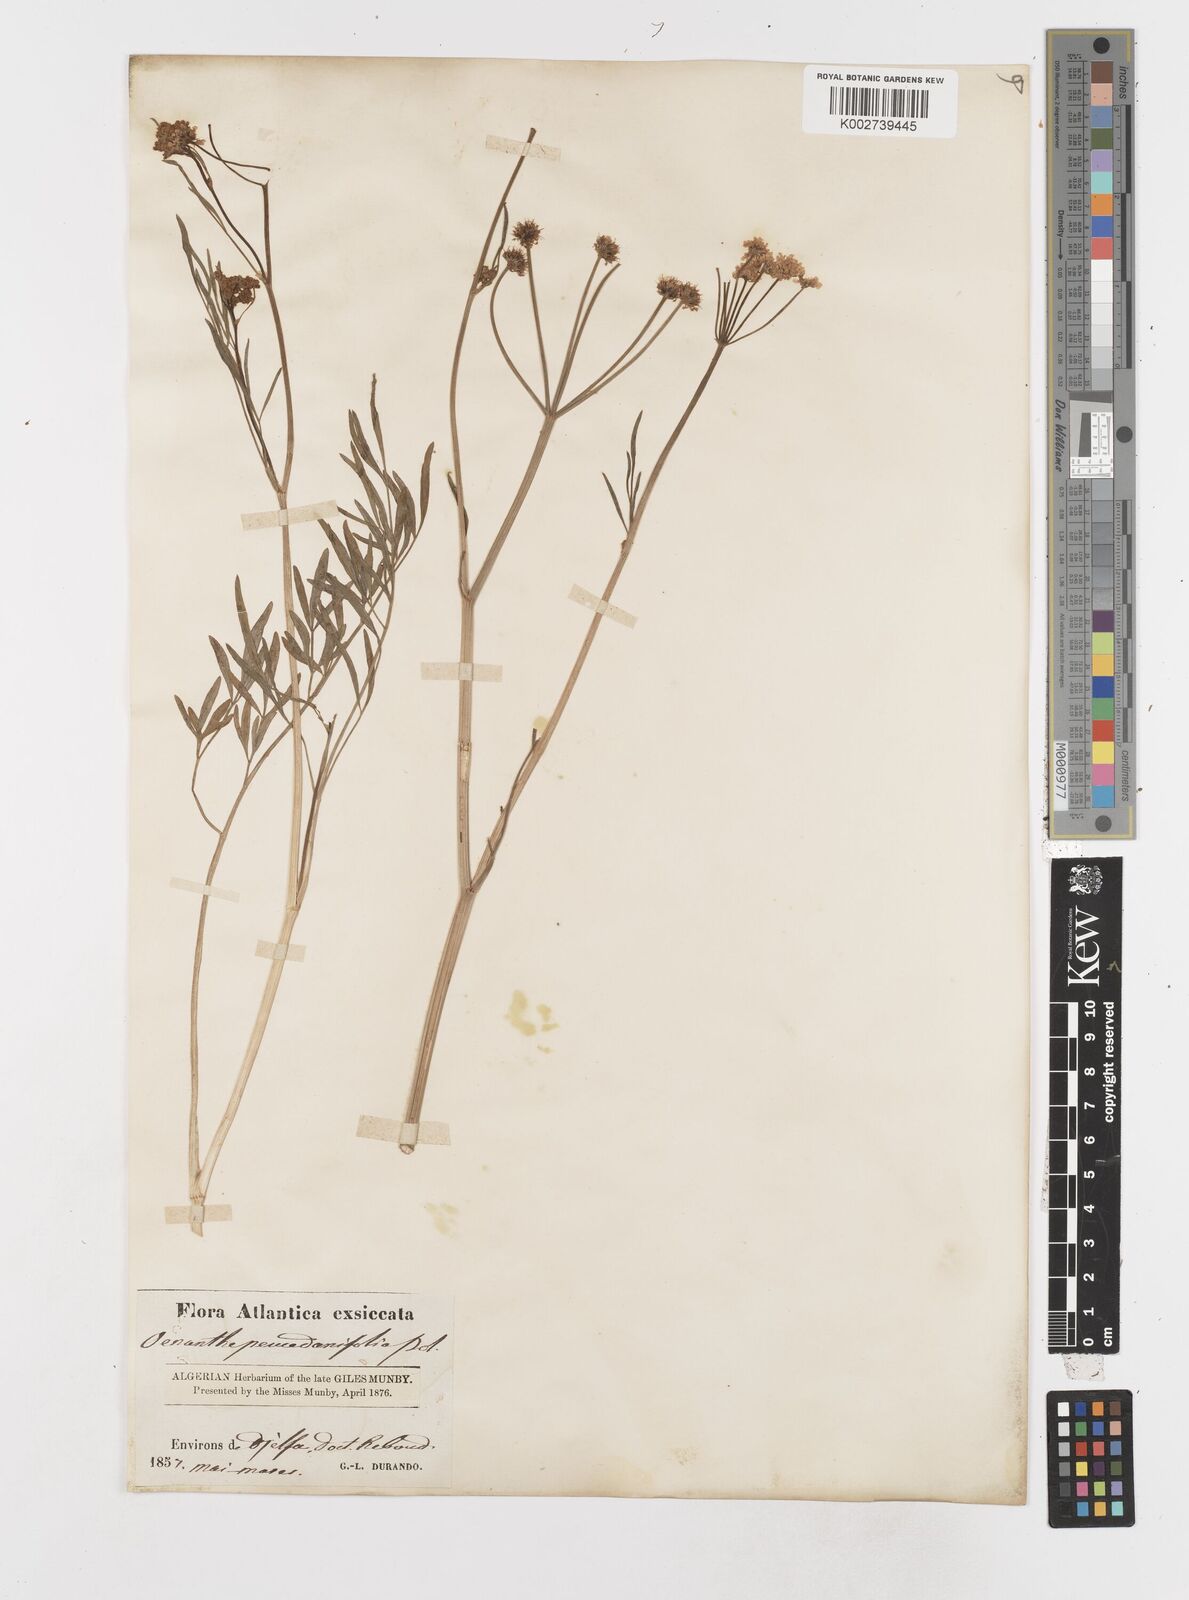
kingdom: Plantae
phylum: Tracheophyta
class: Magnoliopsida
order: Apiales
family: Apiaceae
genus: Oenanthe
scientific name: Oenanthe lachenalii
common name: Parsley water-dropwort
